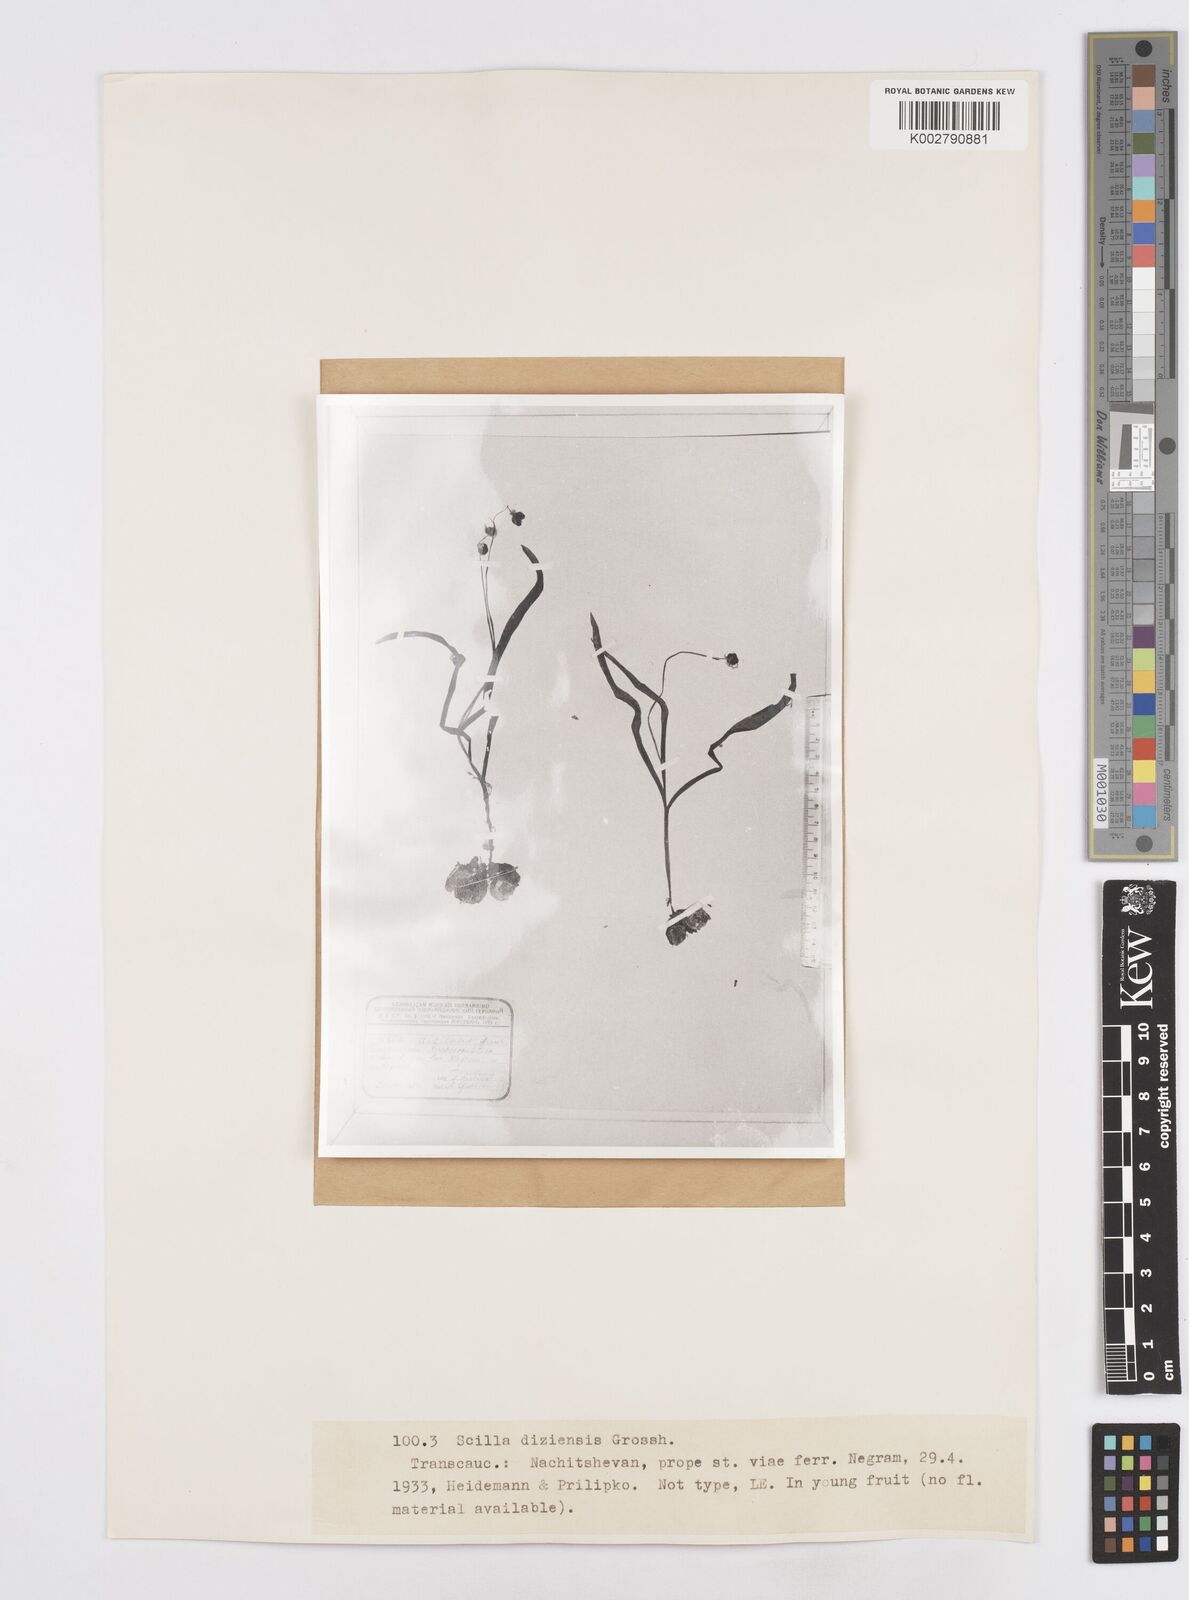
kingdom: Plantae
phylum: Tracheophyta
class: Liliopsida
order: Asparagales
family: Asparagaceae
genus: Scilla
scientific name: Scilla mischtschenkoana
